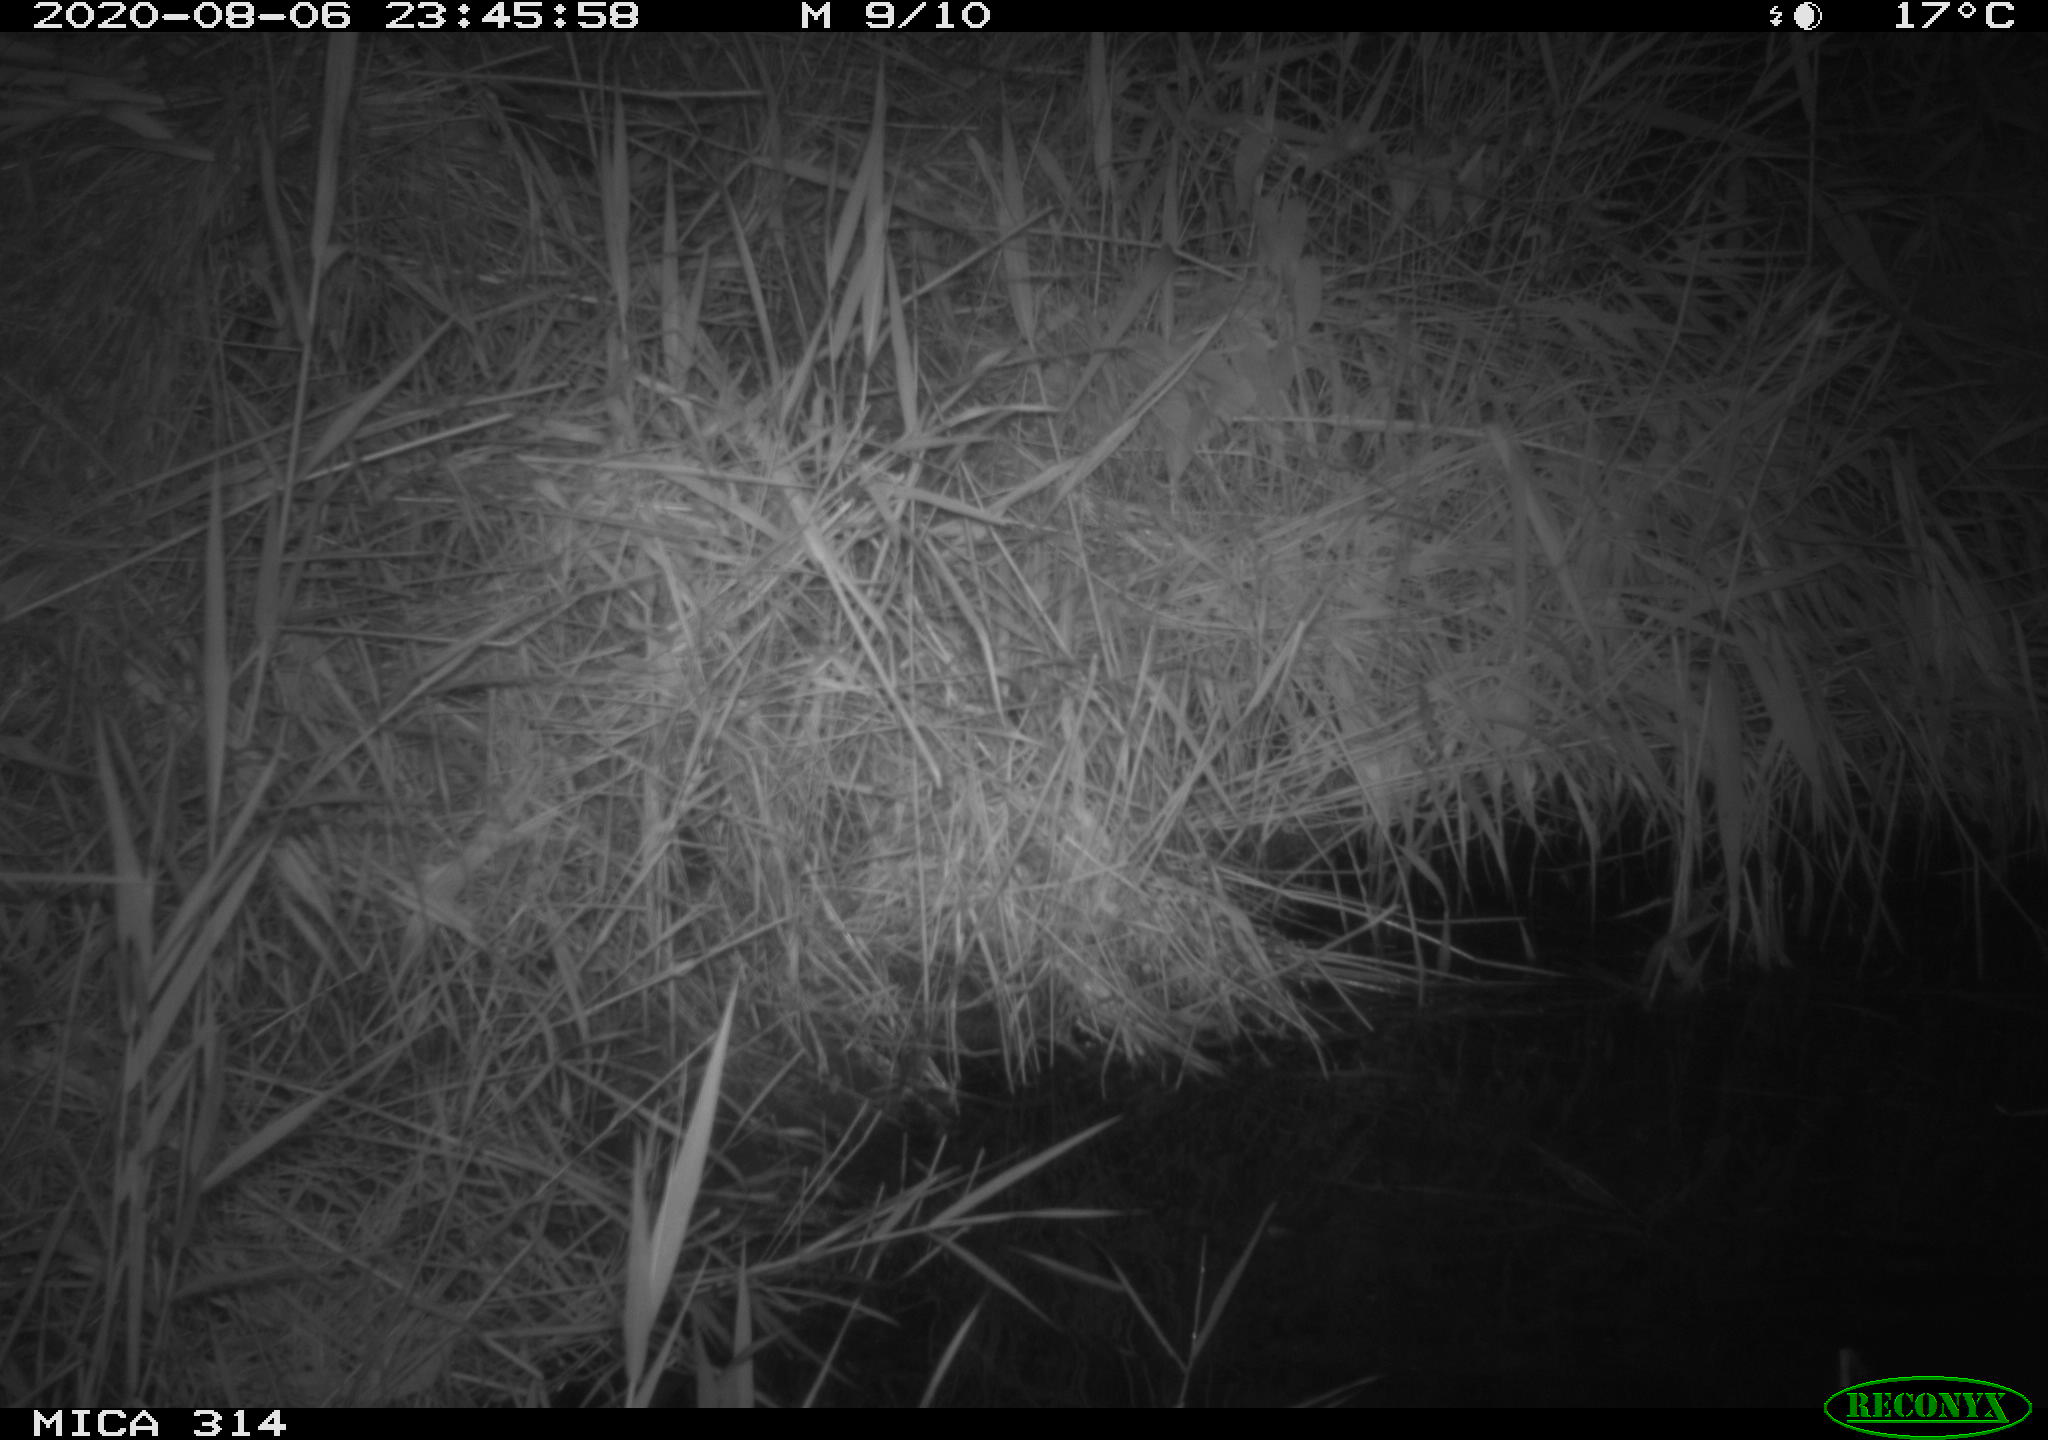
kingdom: Animalia
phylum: Chordata
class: Mammalia
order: Rodentia
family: Muridae
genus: Rattus
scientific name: Rattus norvegicus
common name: Brown rat
